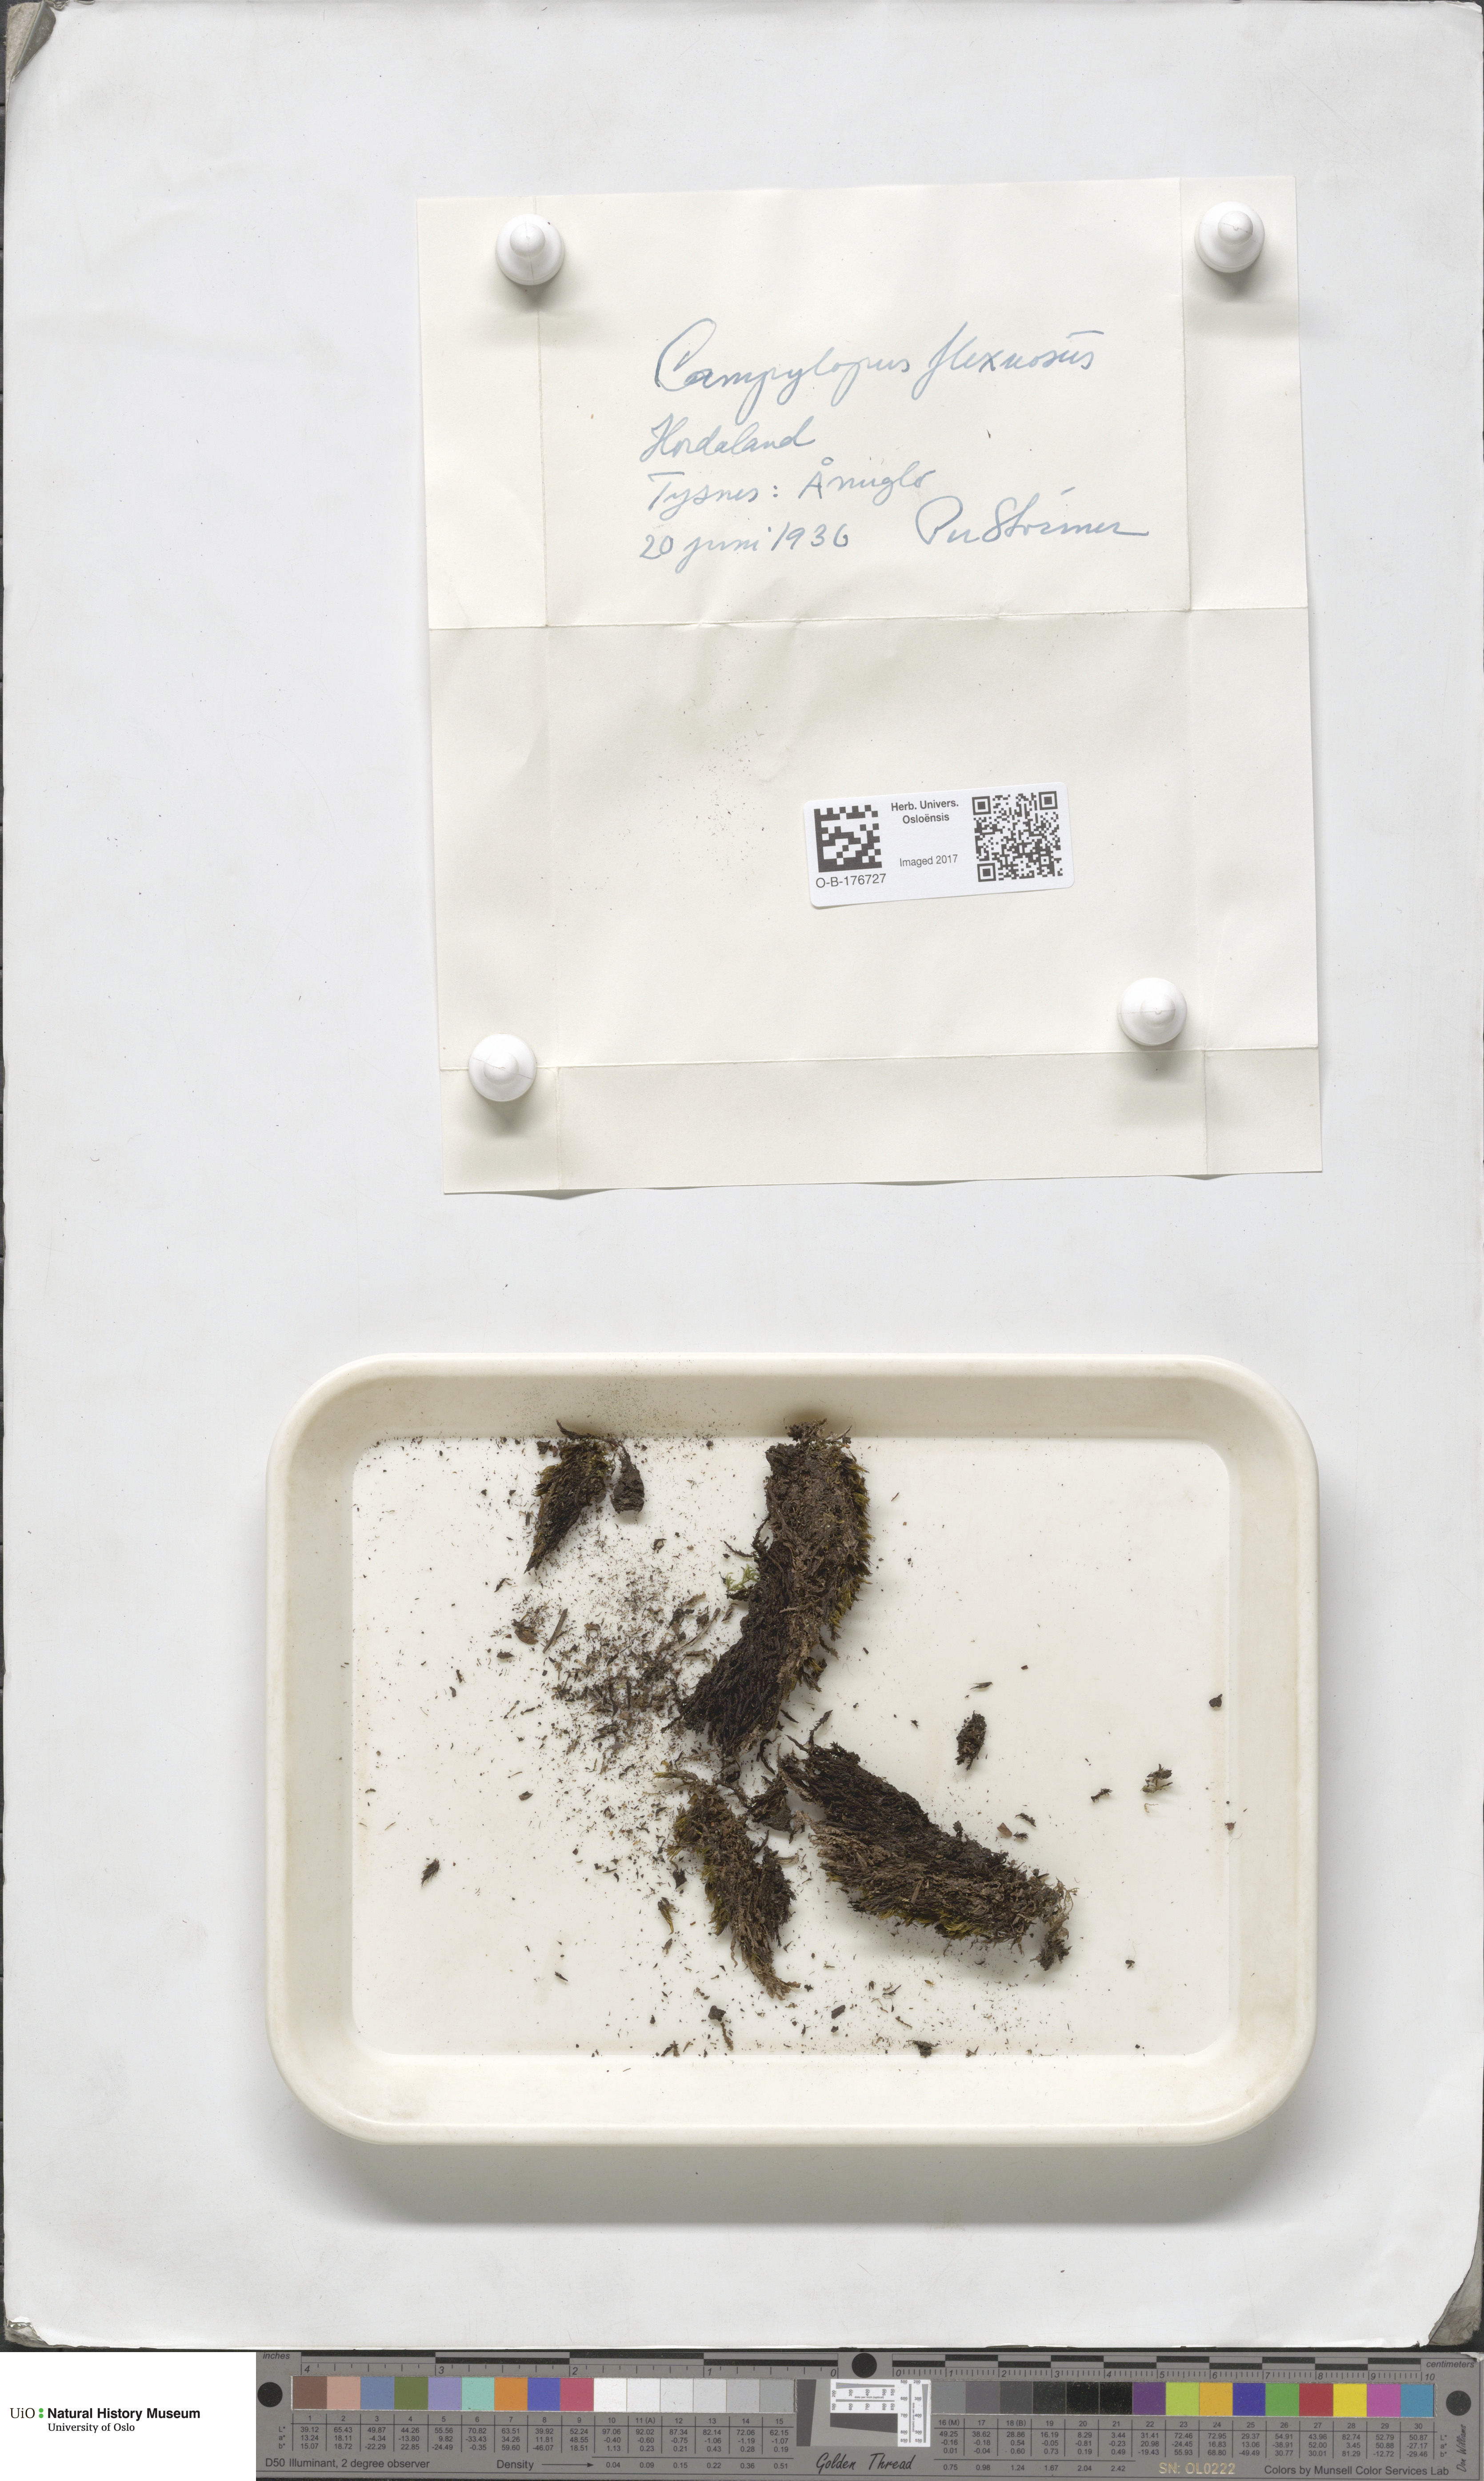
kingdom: Plantae
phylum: Bryophyta
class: Bryopsida
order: Dicranales
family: Leucobryaceae
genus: Campylopus
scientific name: Campylopus flexuosus
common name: Rusty swan-neck moss
